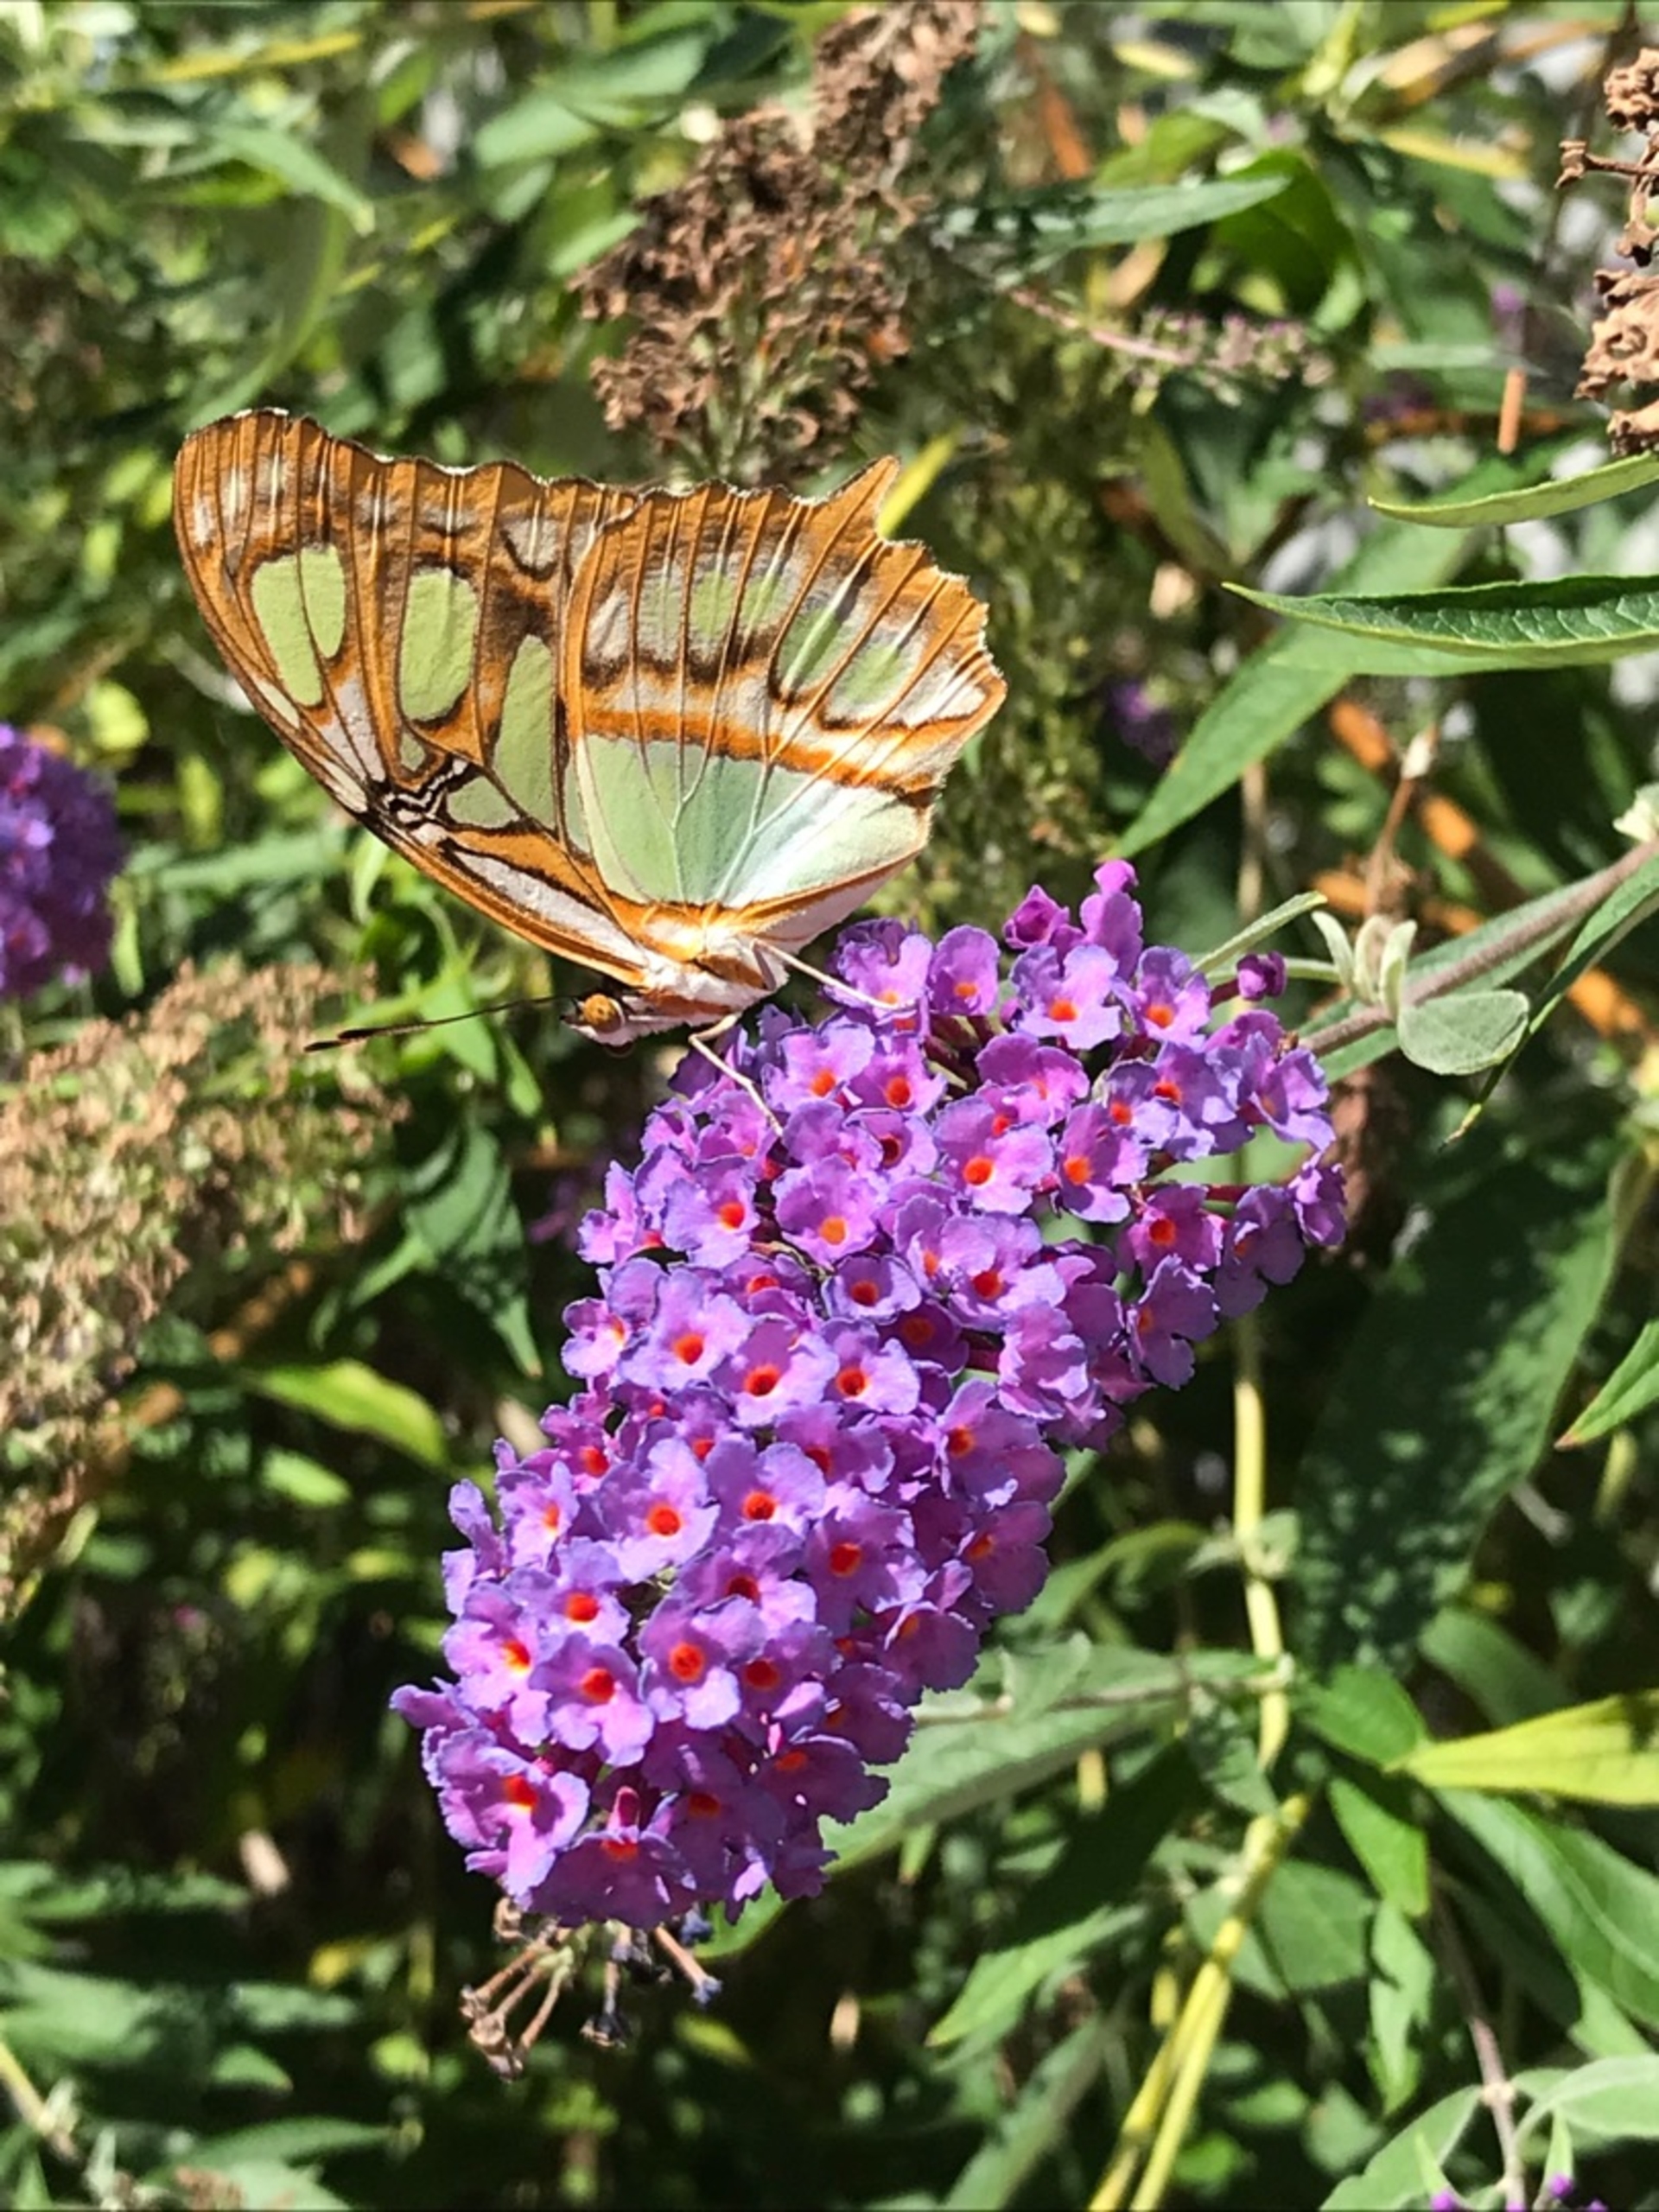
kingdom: Animalia
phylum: Arthropoda
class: Insecta
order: Lepidoptera
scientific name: Lepidoptera
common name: Sommerfugle
